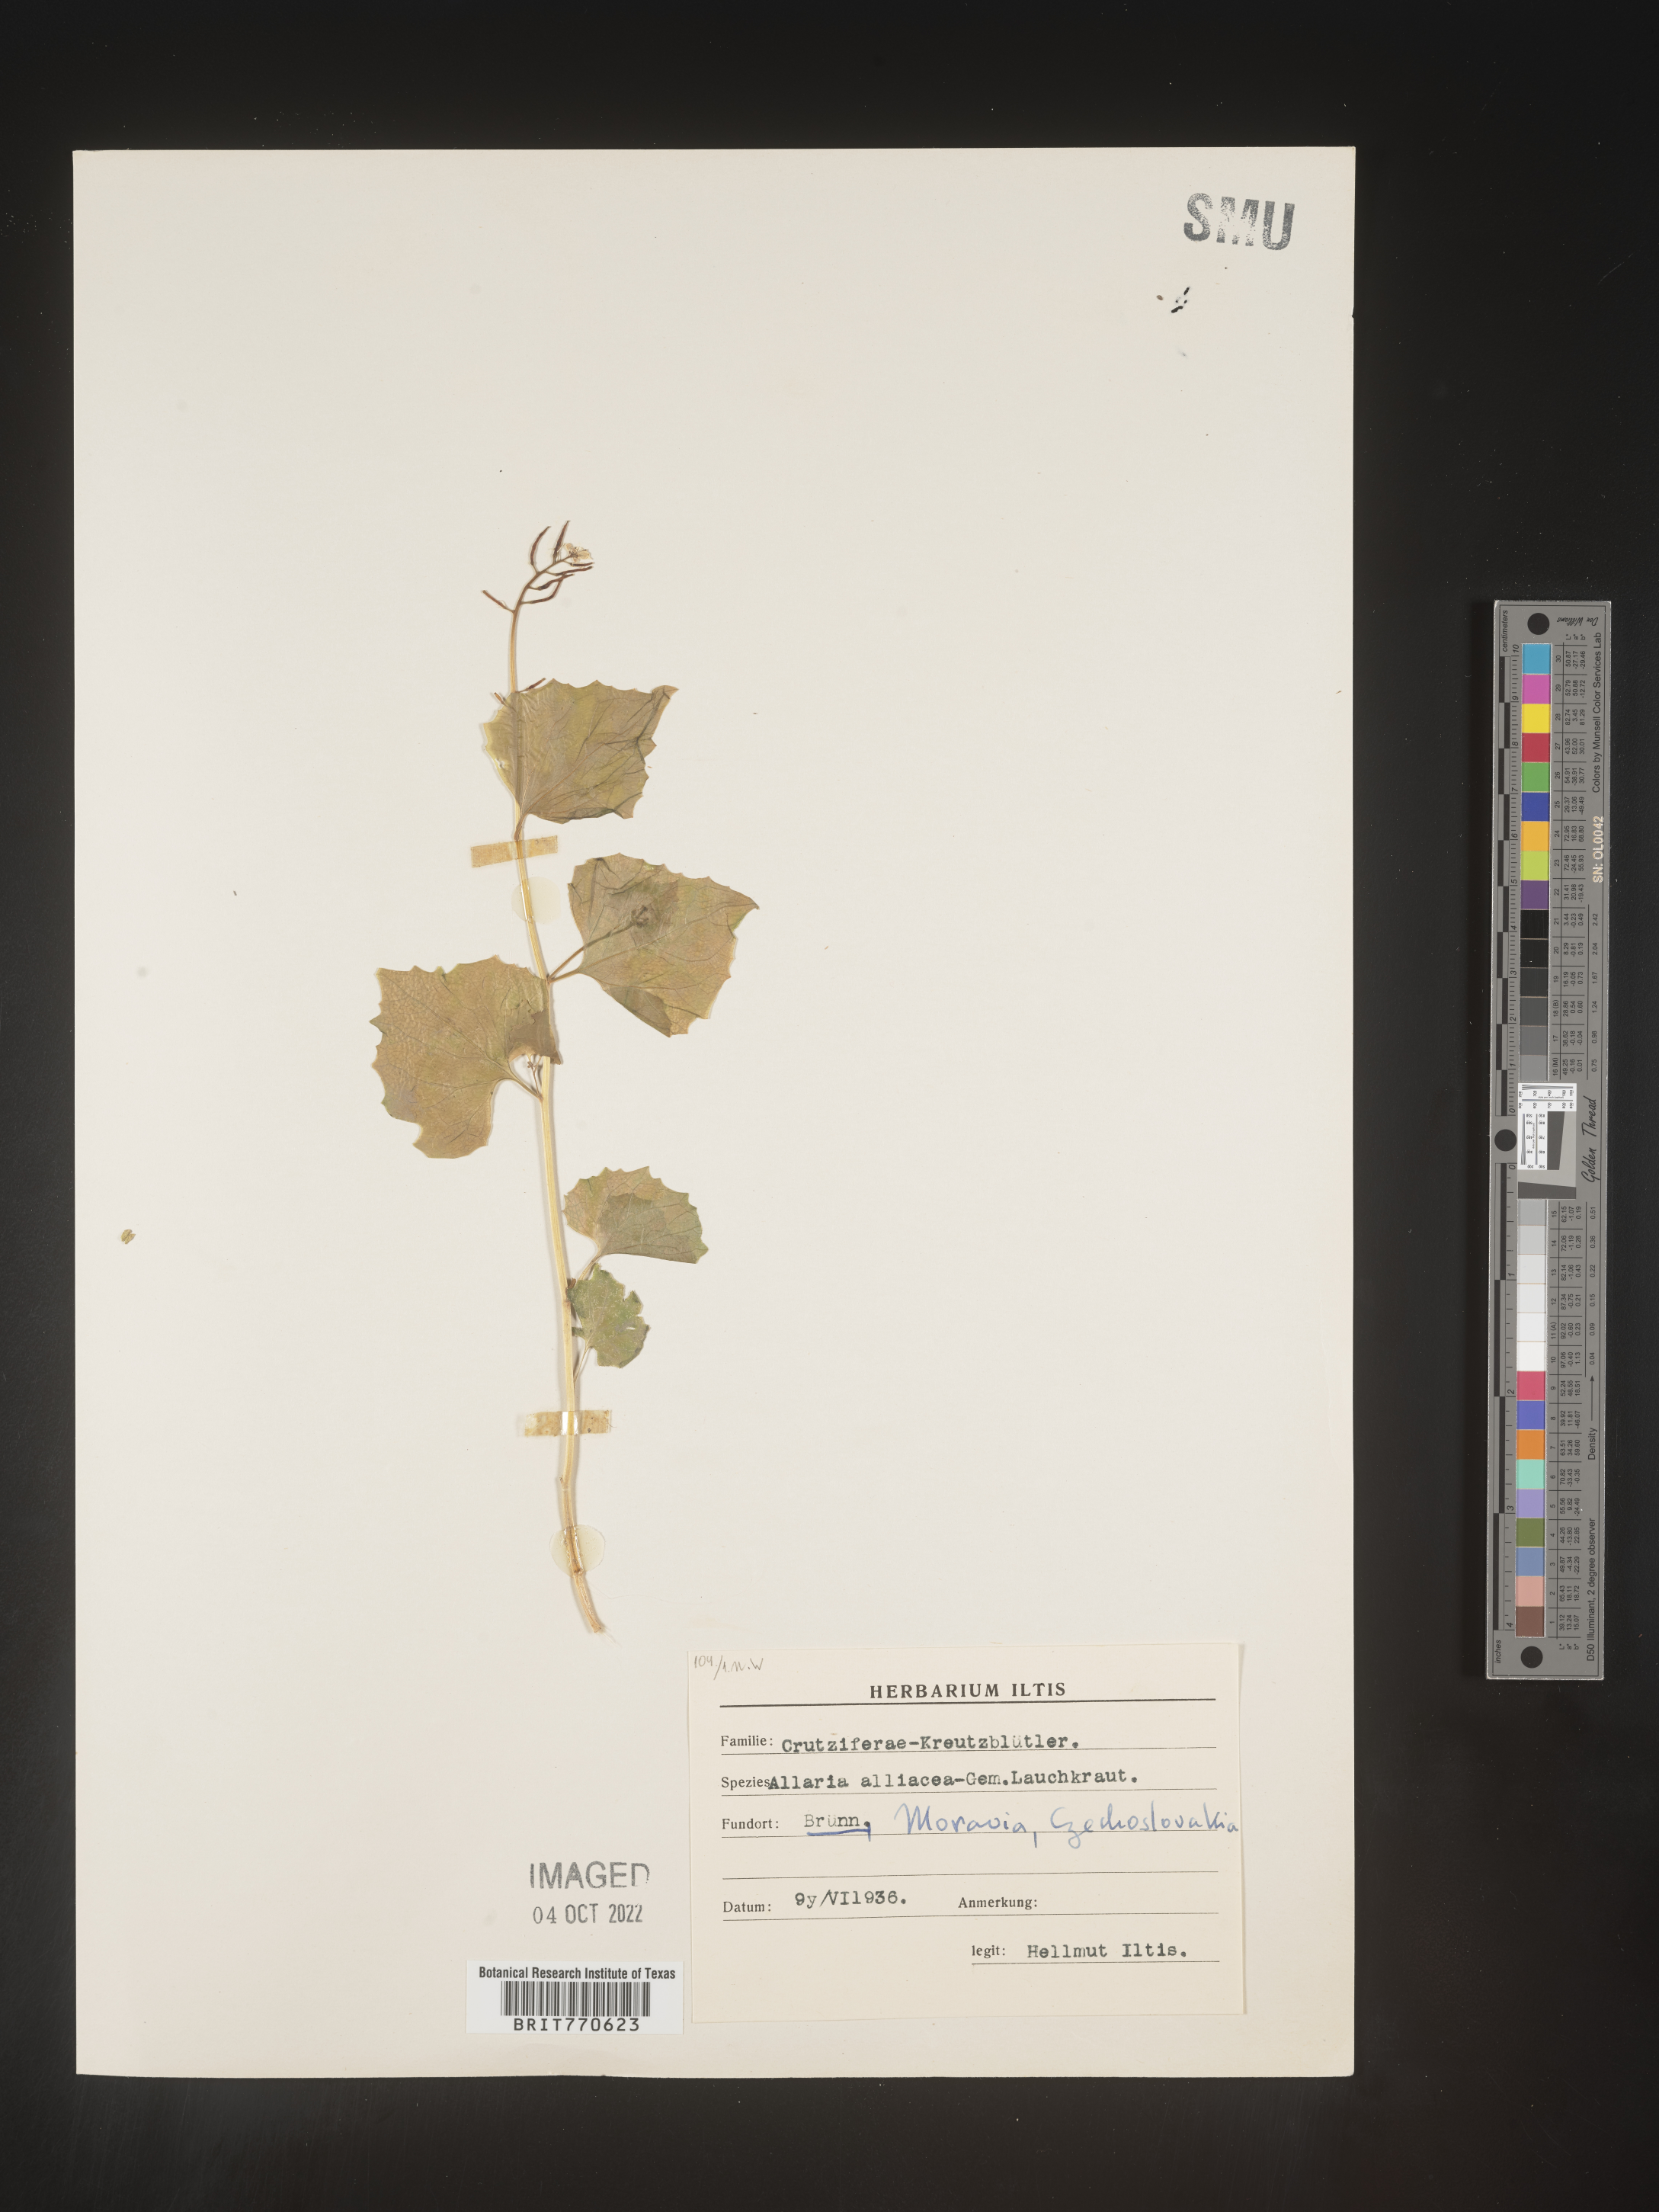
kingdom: Plantae
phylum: Tracheophyta
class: Magnoliopsida
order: Brassicales
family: Brassicaceae
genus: Alliaria
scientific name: Alliaria
